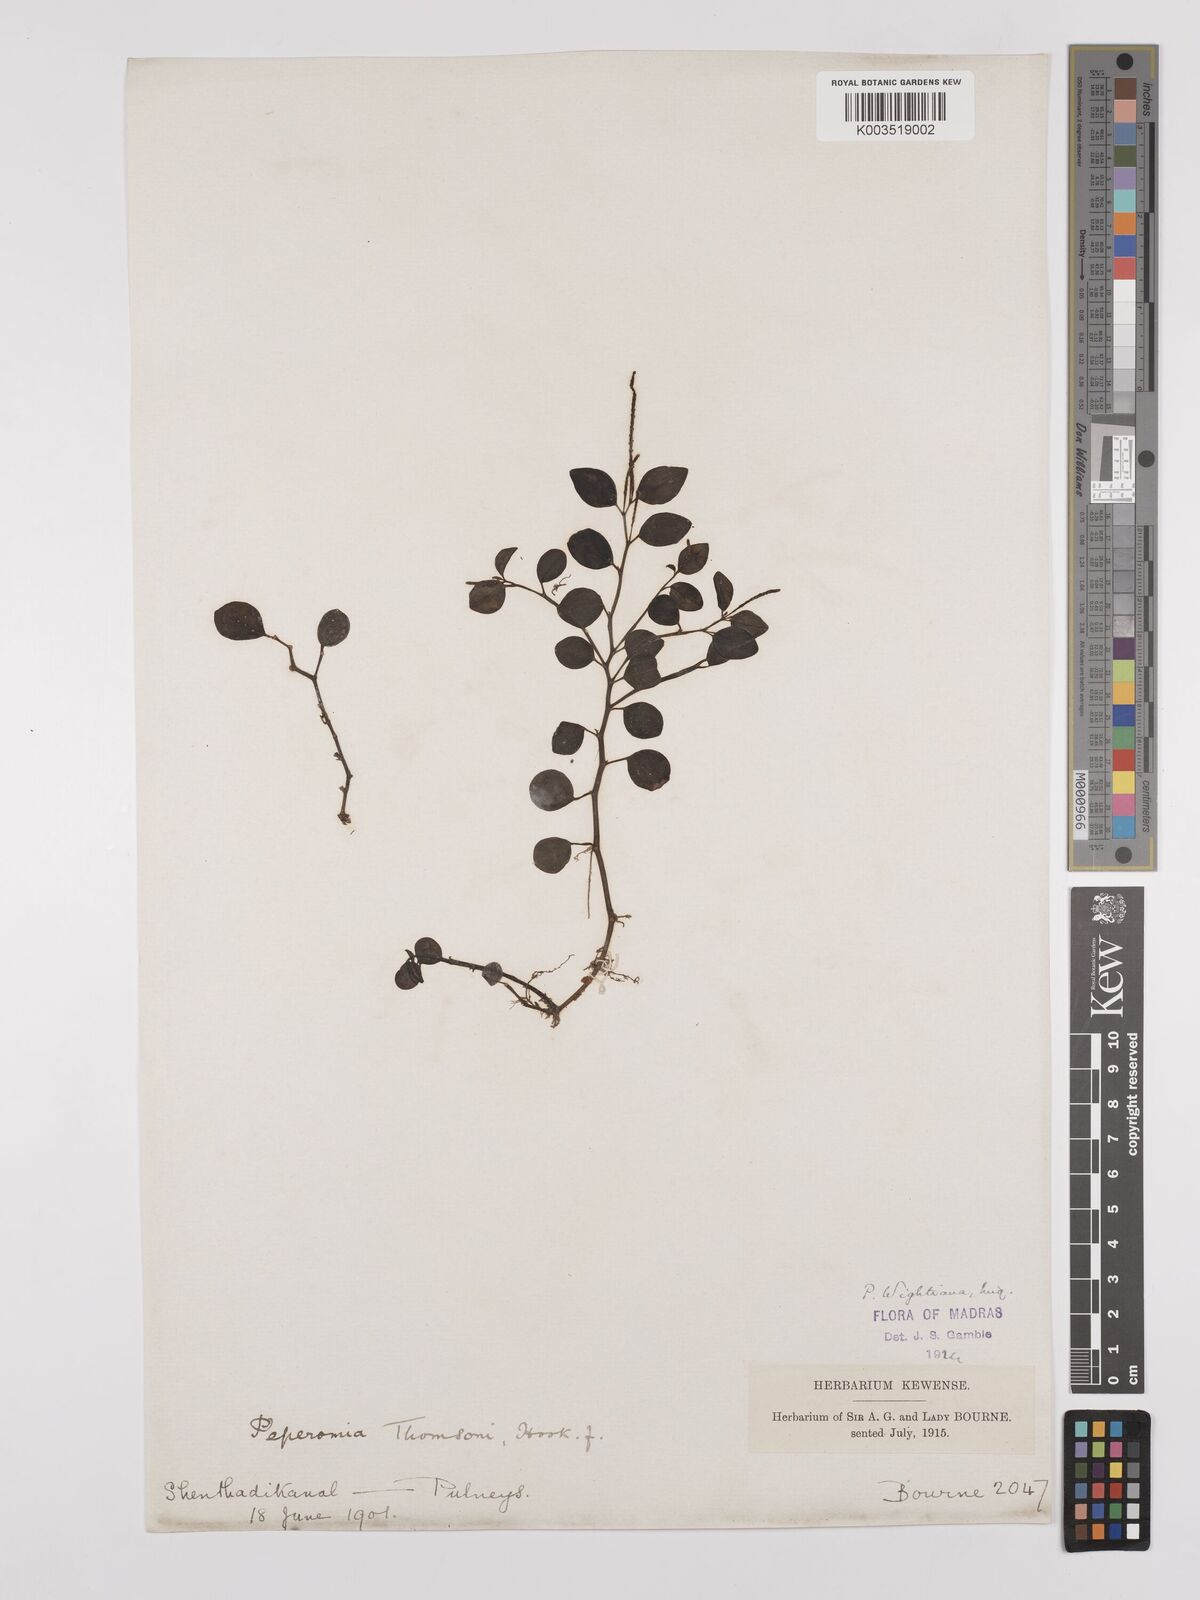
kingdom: Plantae
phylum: Tracheophyta
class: Magnoliopsida
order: Piperales
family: Piperaceae
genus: Peperomia
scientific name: Peperomia wightiana
